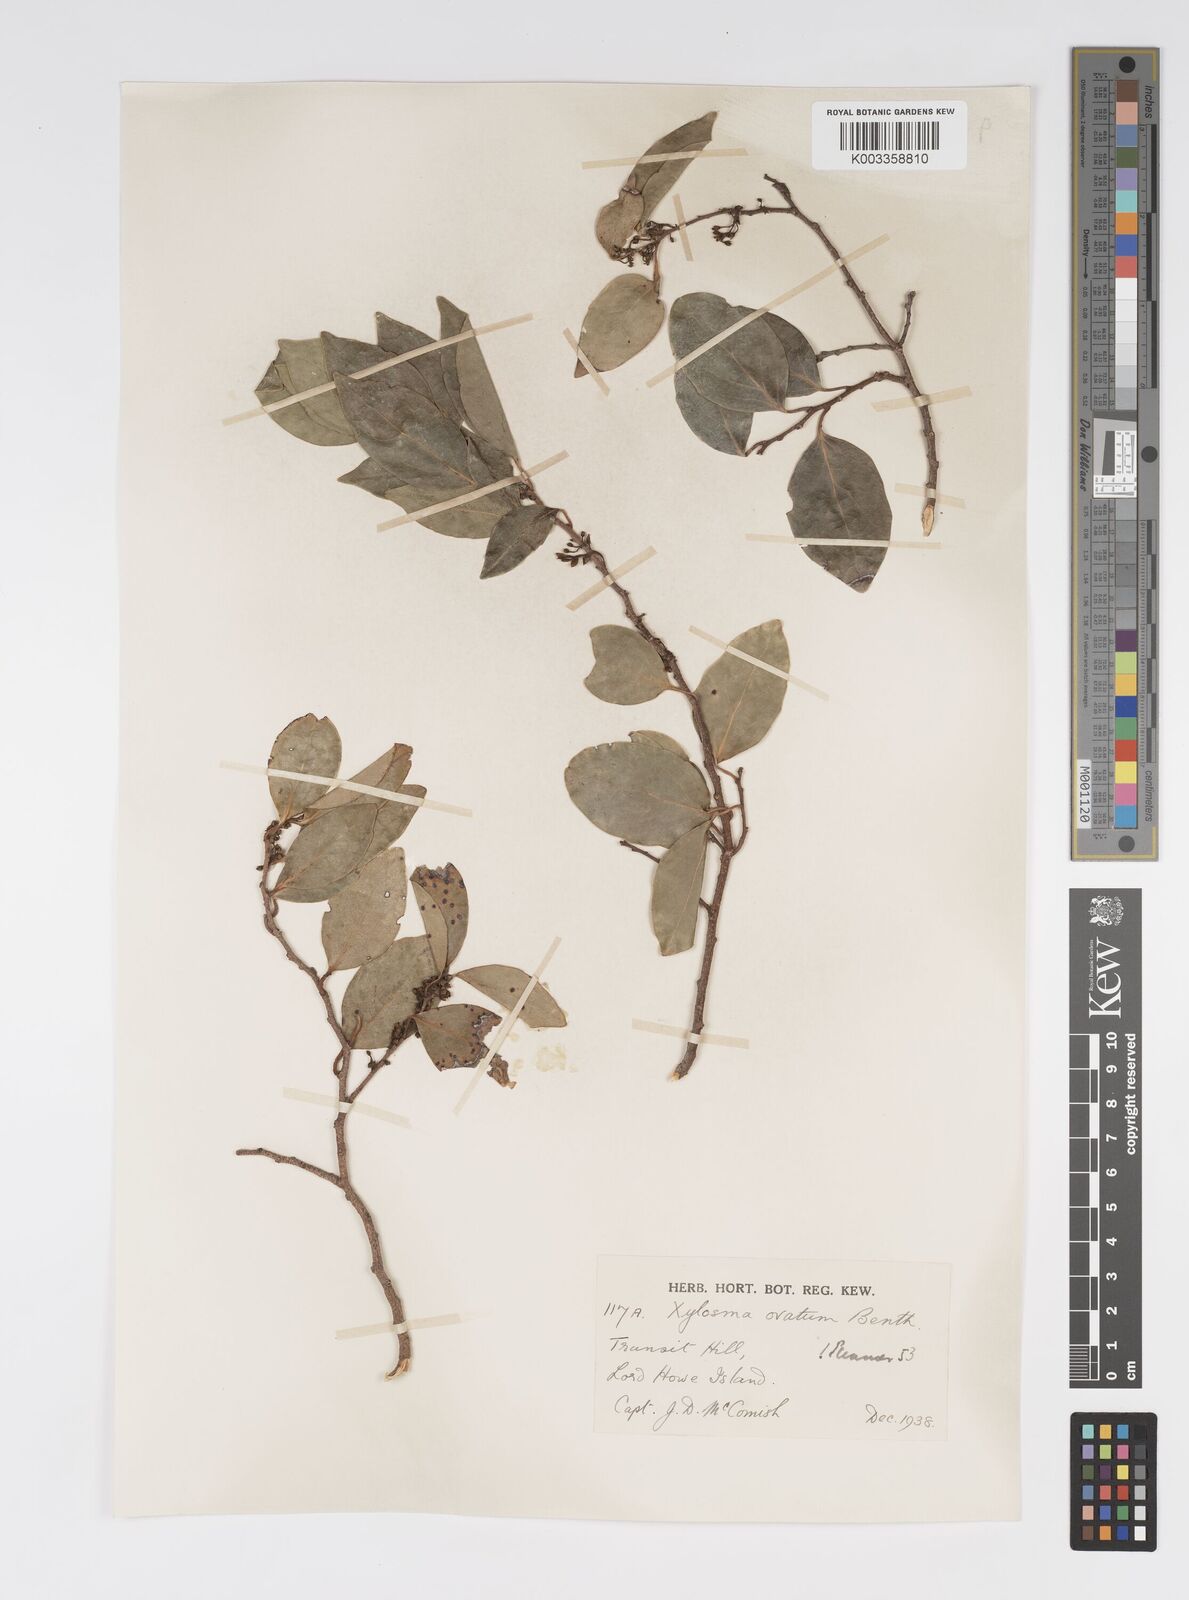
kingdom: Plantae
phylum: Tracheophyta
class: Magnoliopsida
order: Malpighiales
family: Salicaceae
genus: Xylosma
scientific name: Xylosma maidenii
